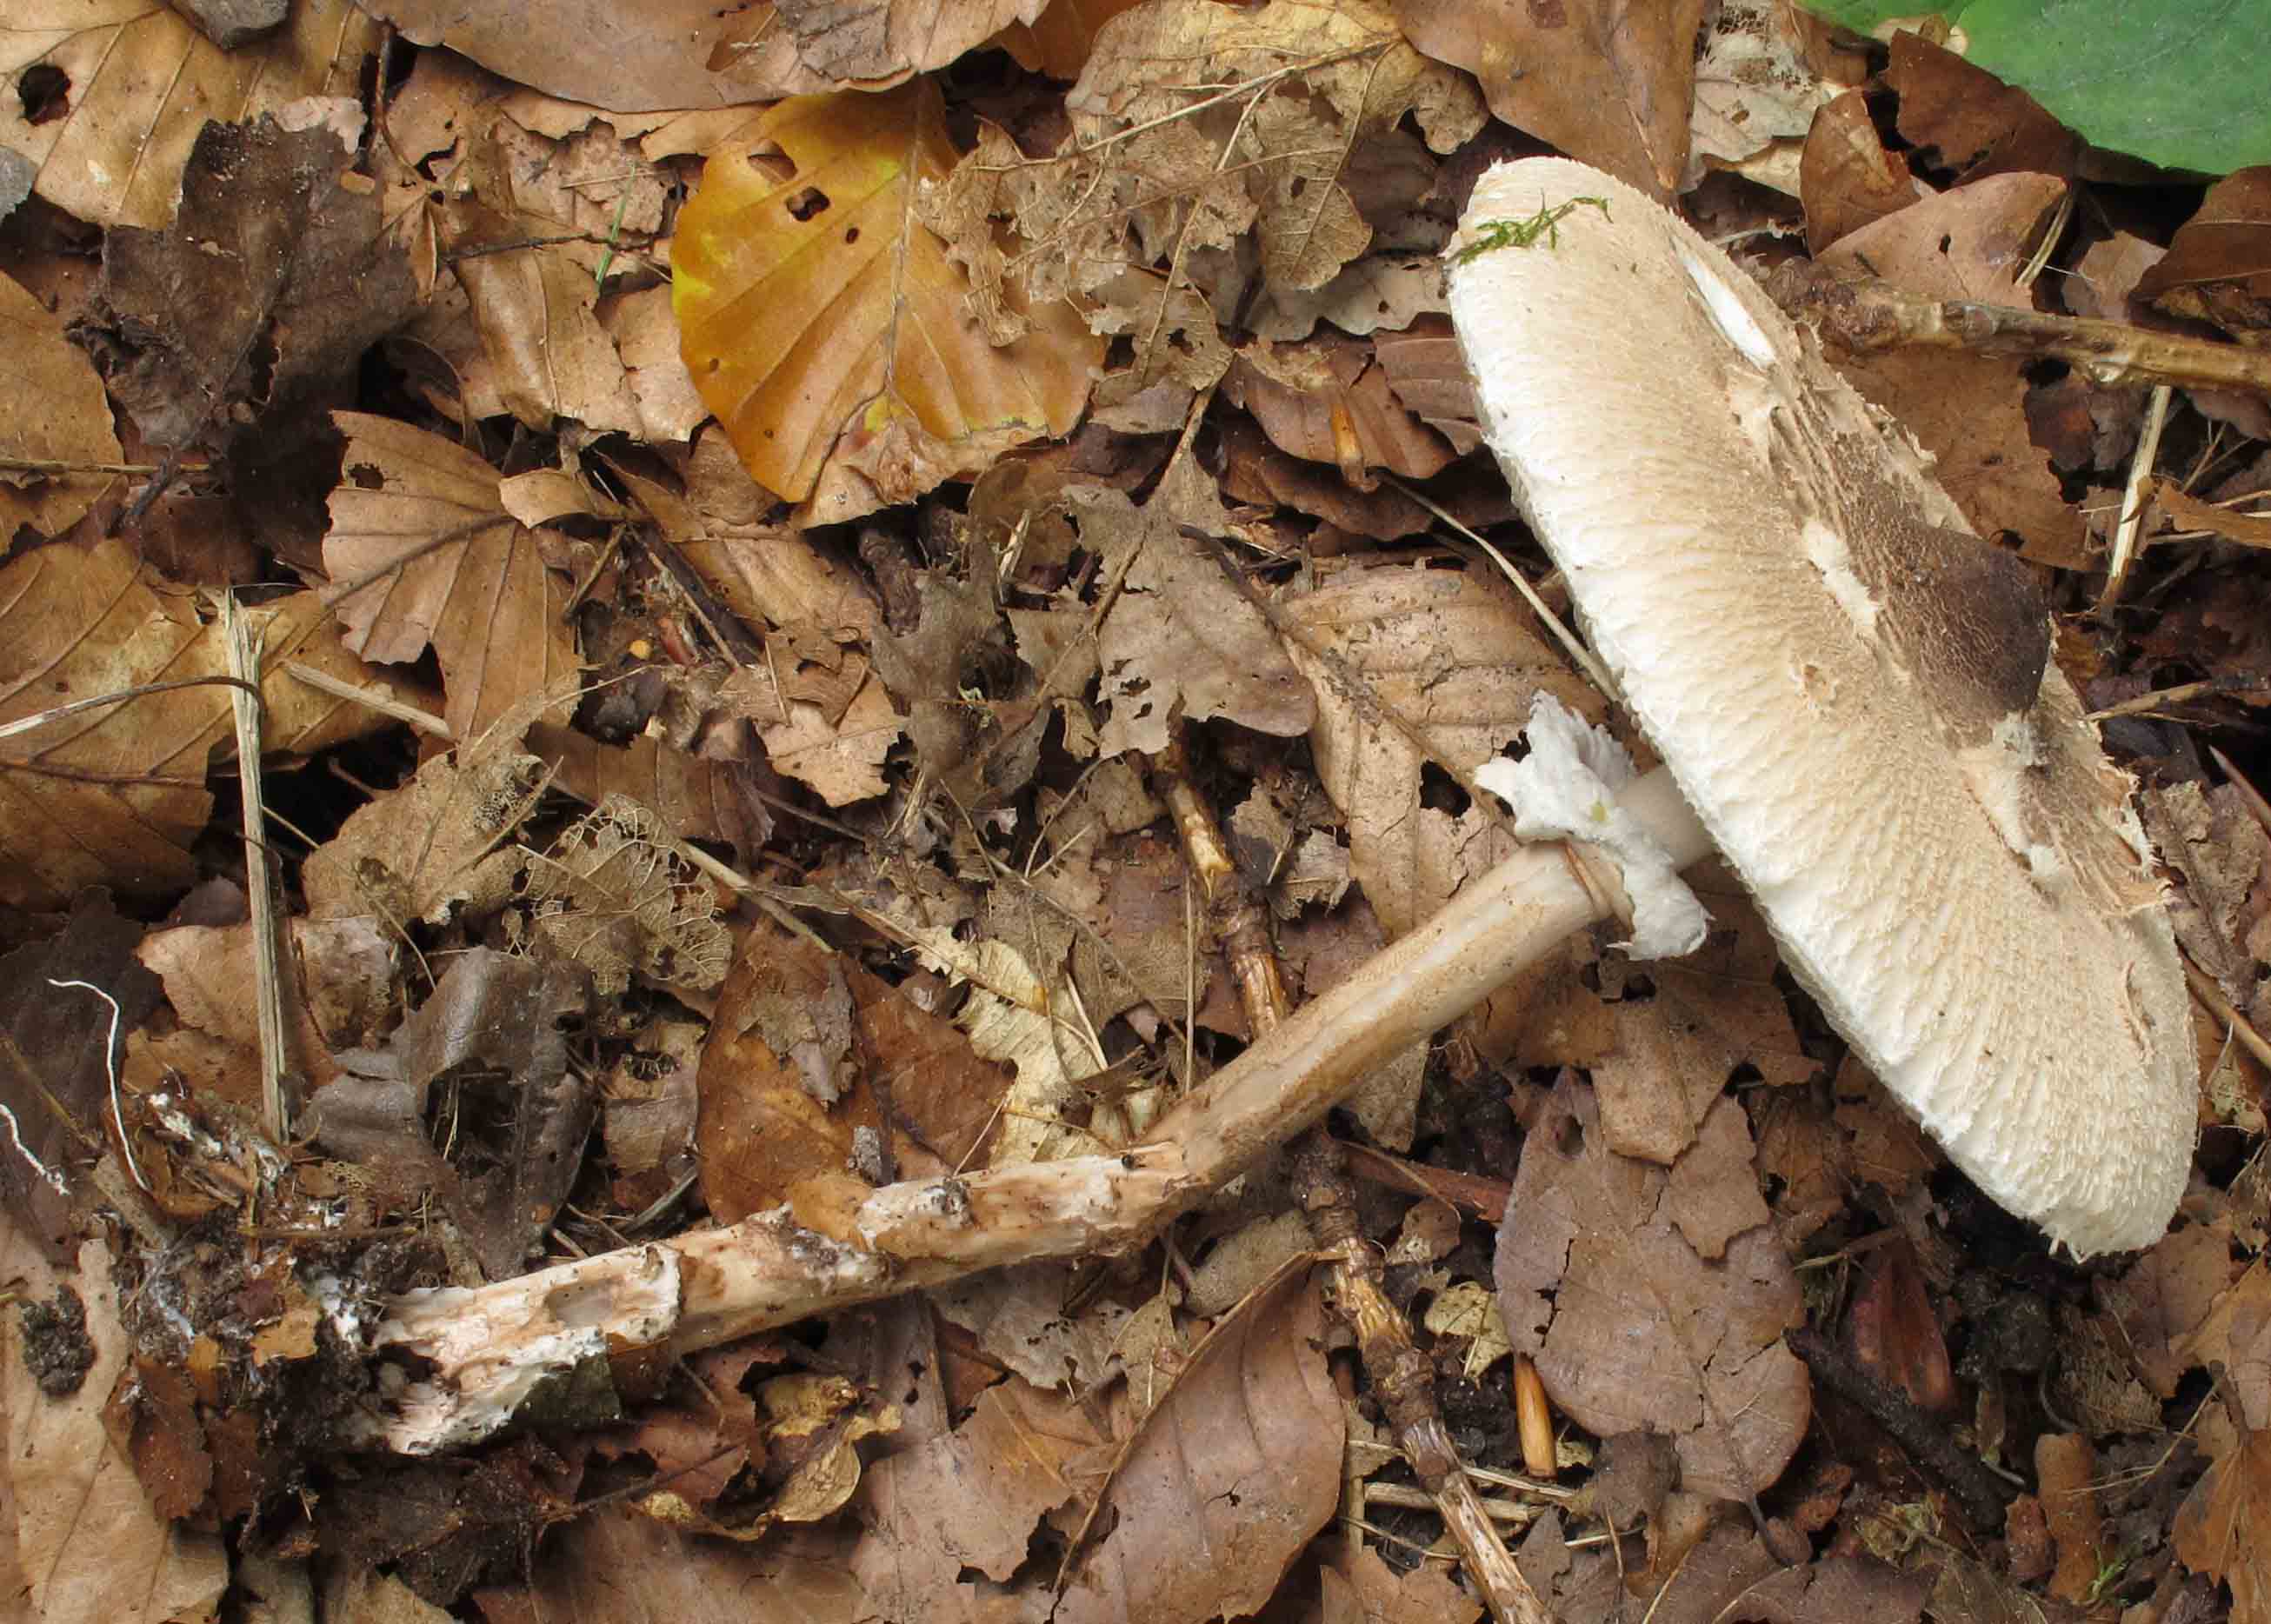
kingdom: Fungi
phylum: Basidiomycota
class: Agaricomycetes
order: Agaricales
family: Agaricaceae
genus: Macrolepiota
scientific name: Macrolepiota procera
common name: stor kæmpeparasolhat
